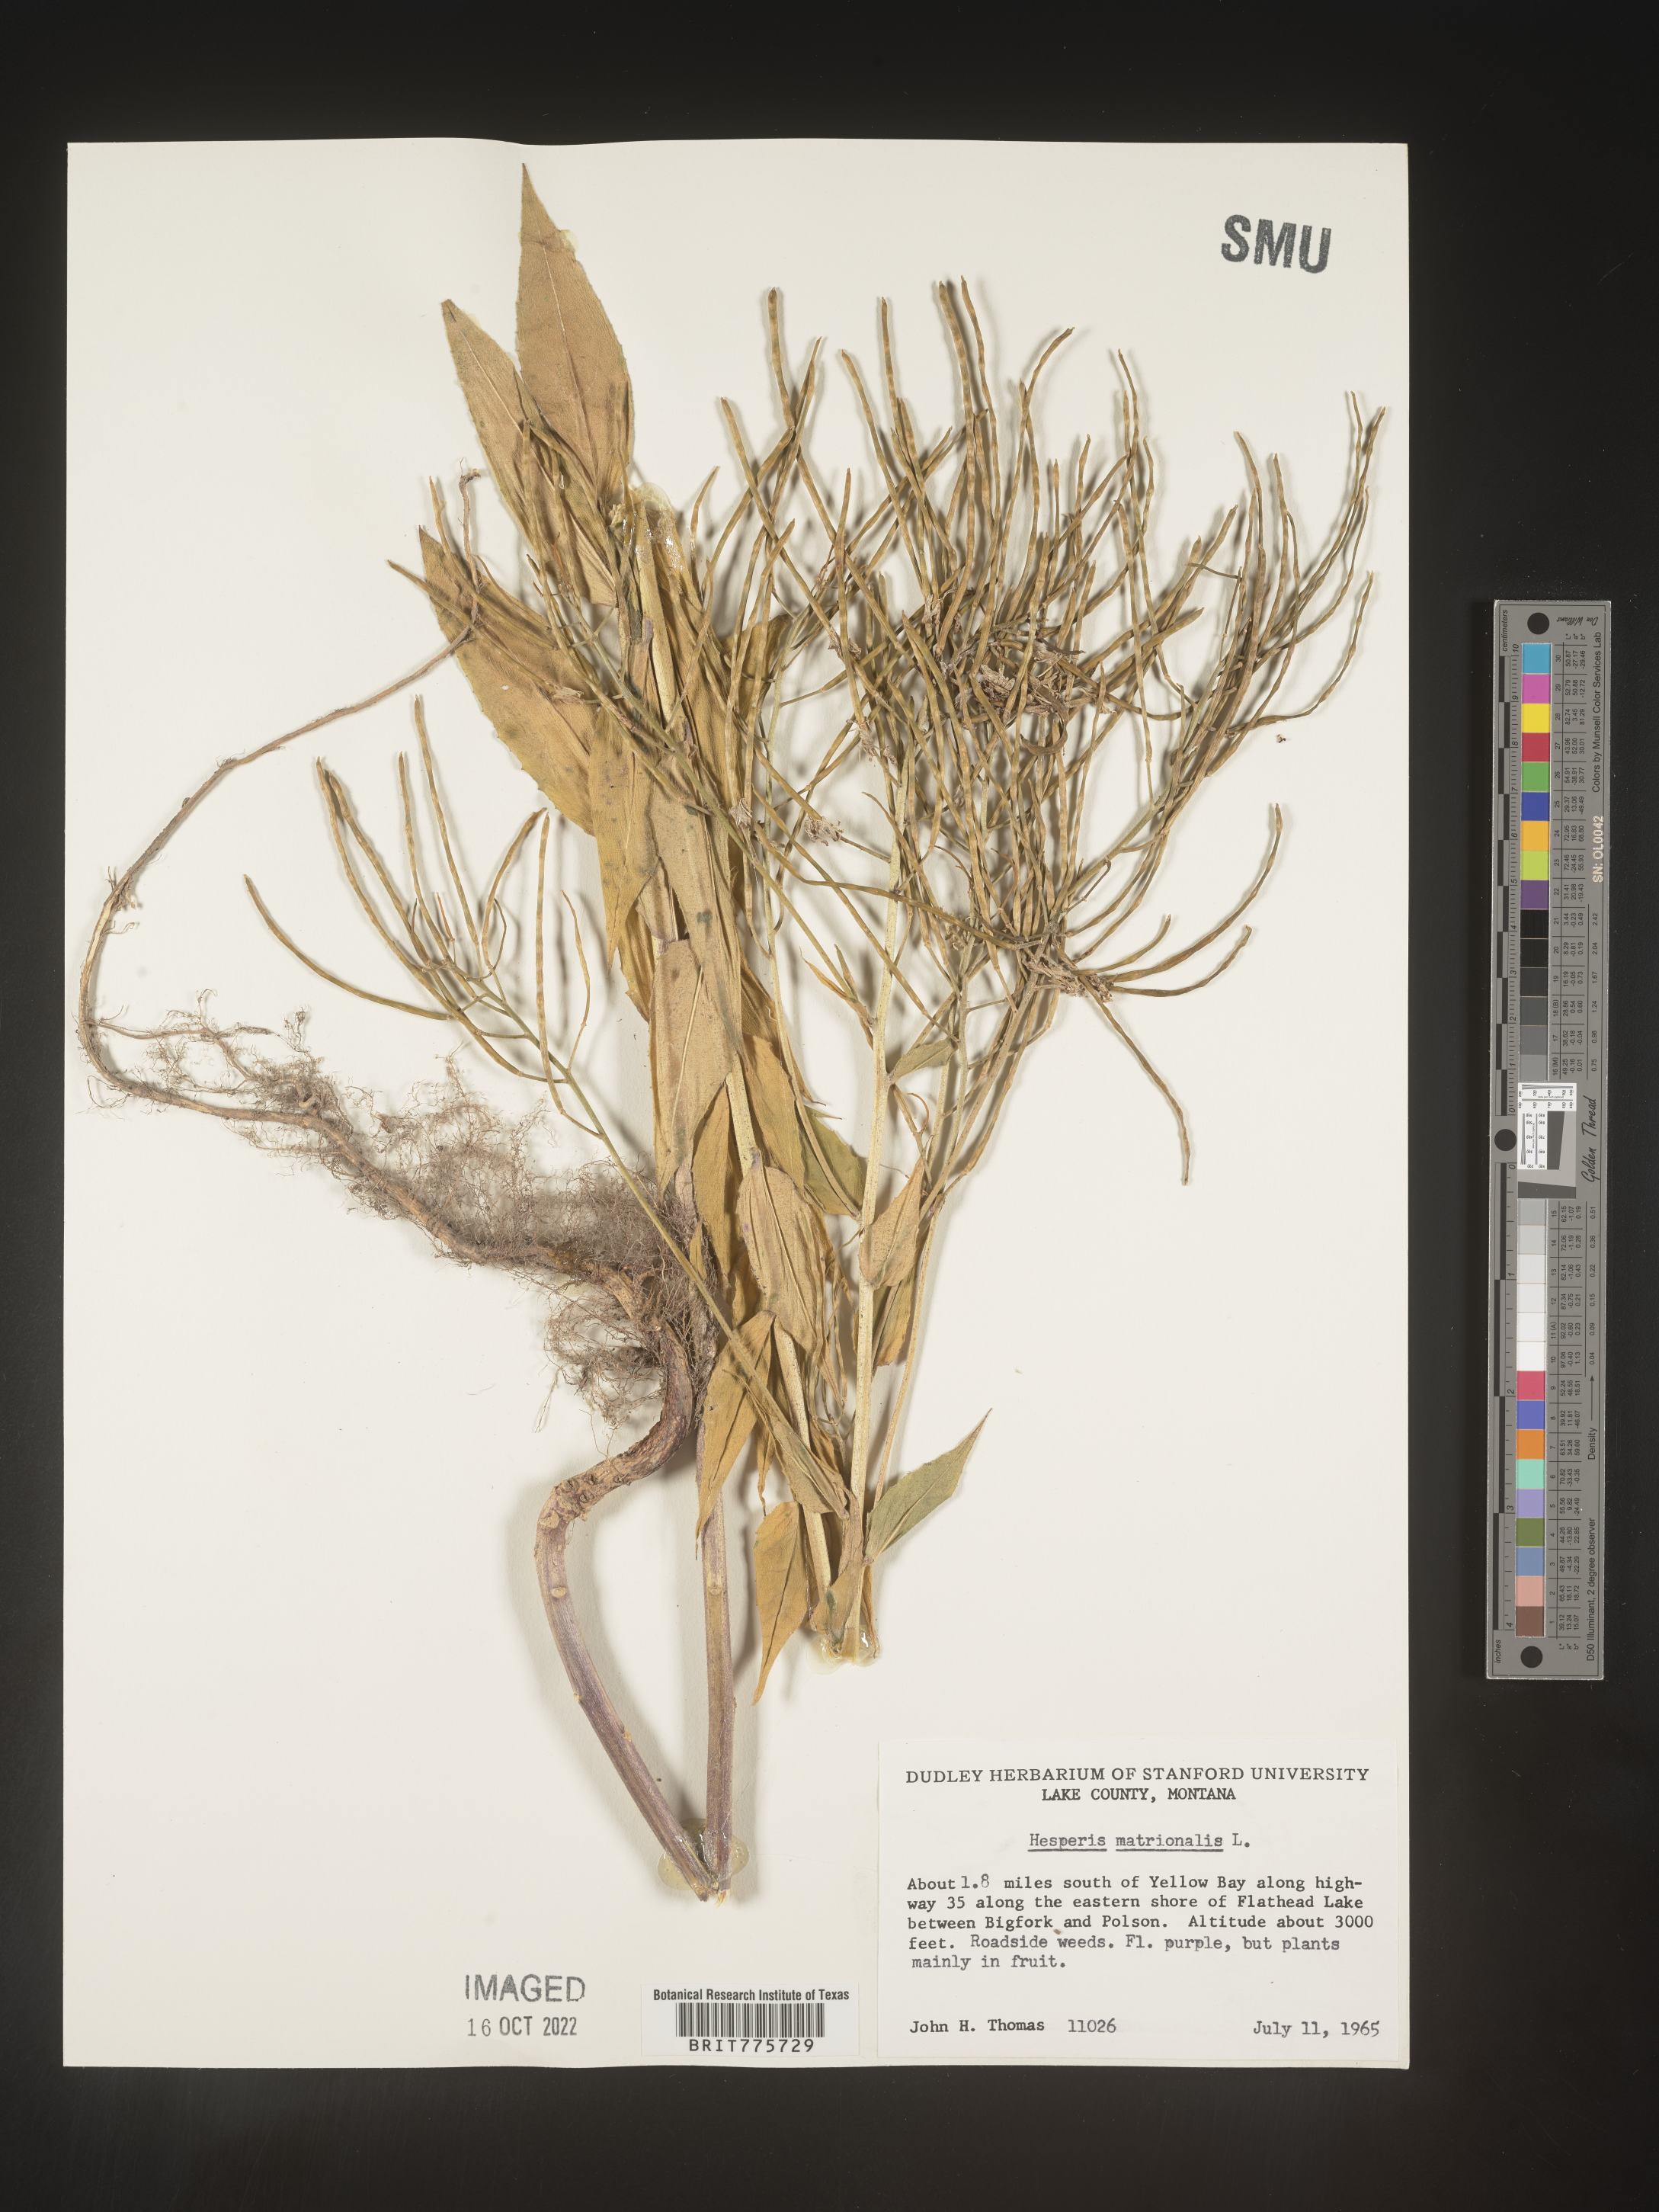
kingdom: Plantae
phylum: Tracheophyta
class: Magnoliopsida
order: Brassicales
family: Brassicaceae
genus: Hesperis
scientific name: Hesperis matronalis
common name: Dame's-violet
